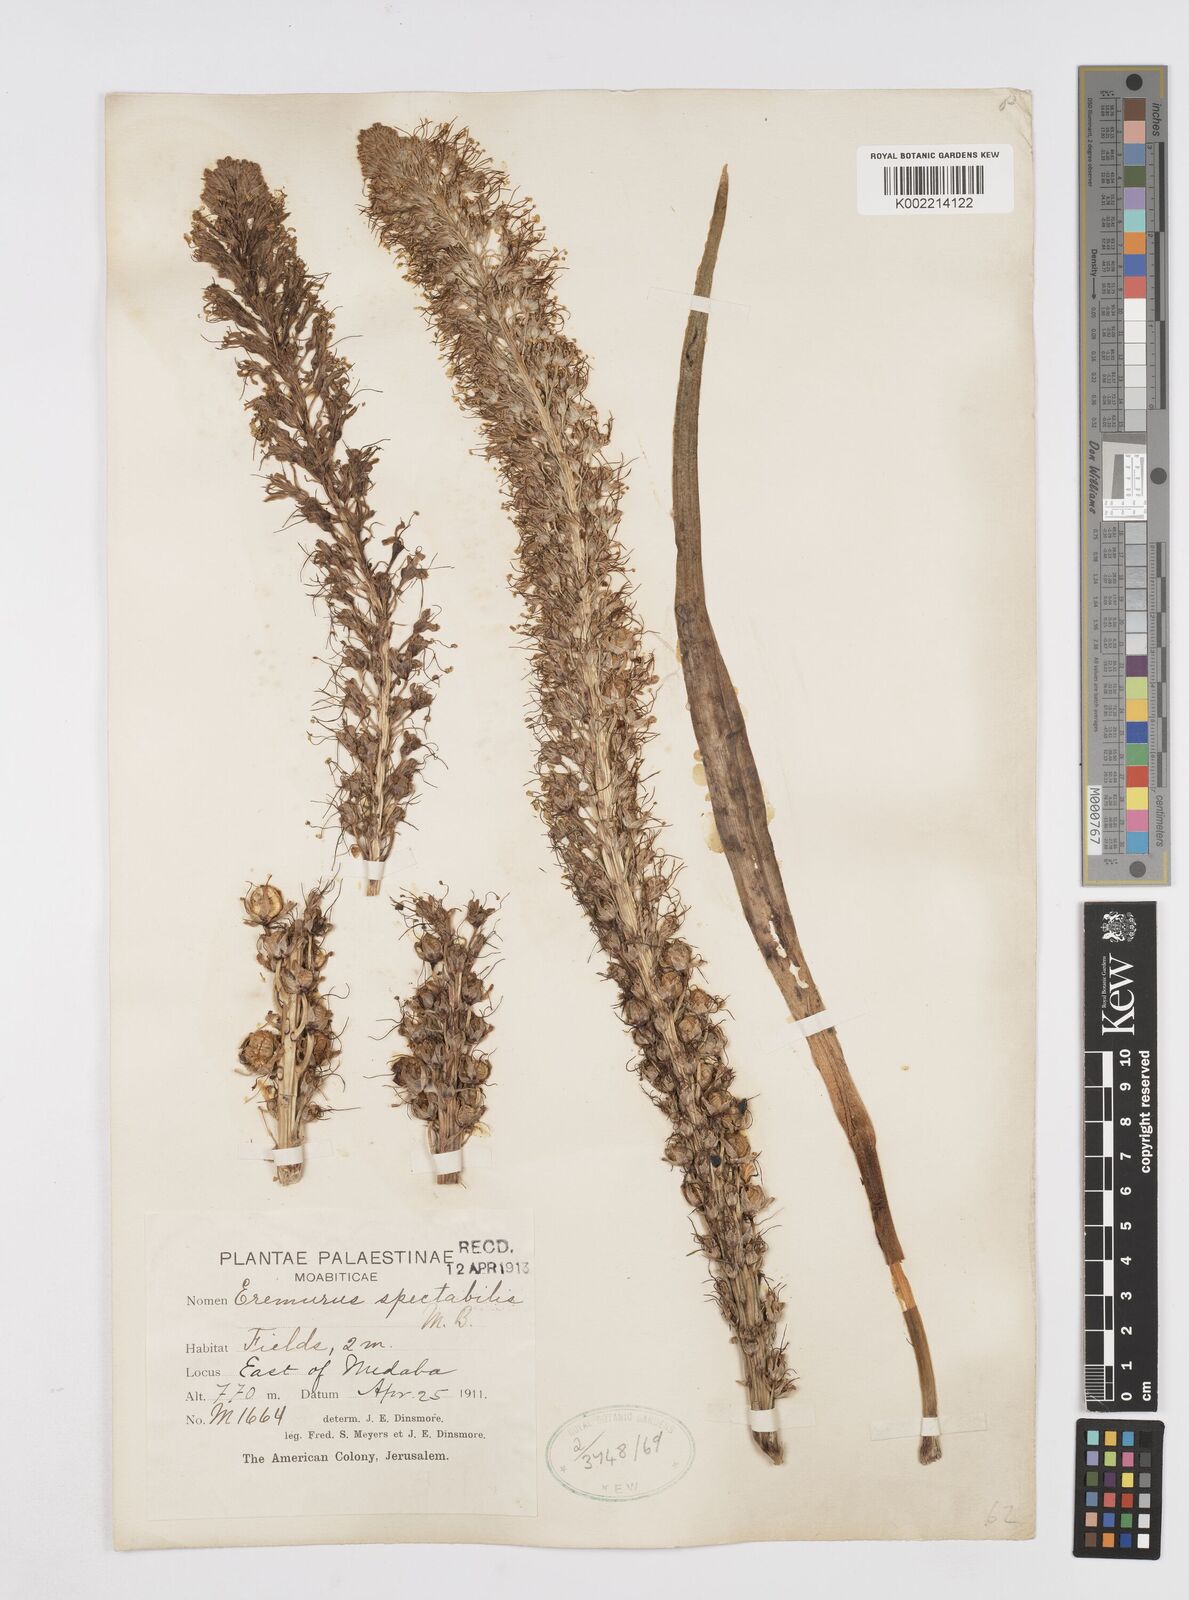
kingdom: Plantae
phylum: Tracheophyta
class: Liliopsida
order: Asparagales
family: Asphodelaceae
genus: Eremurus
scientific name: Eremurus spectabilis
